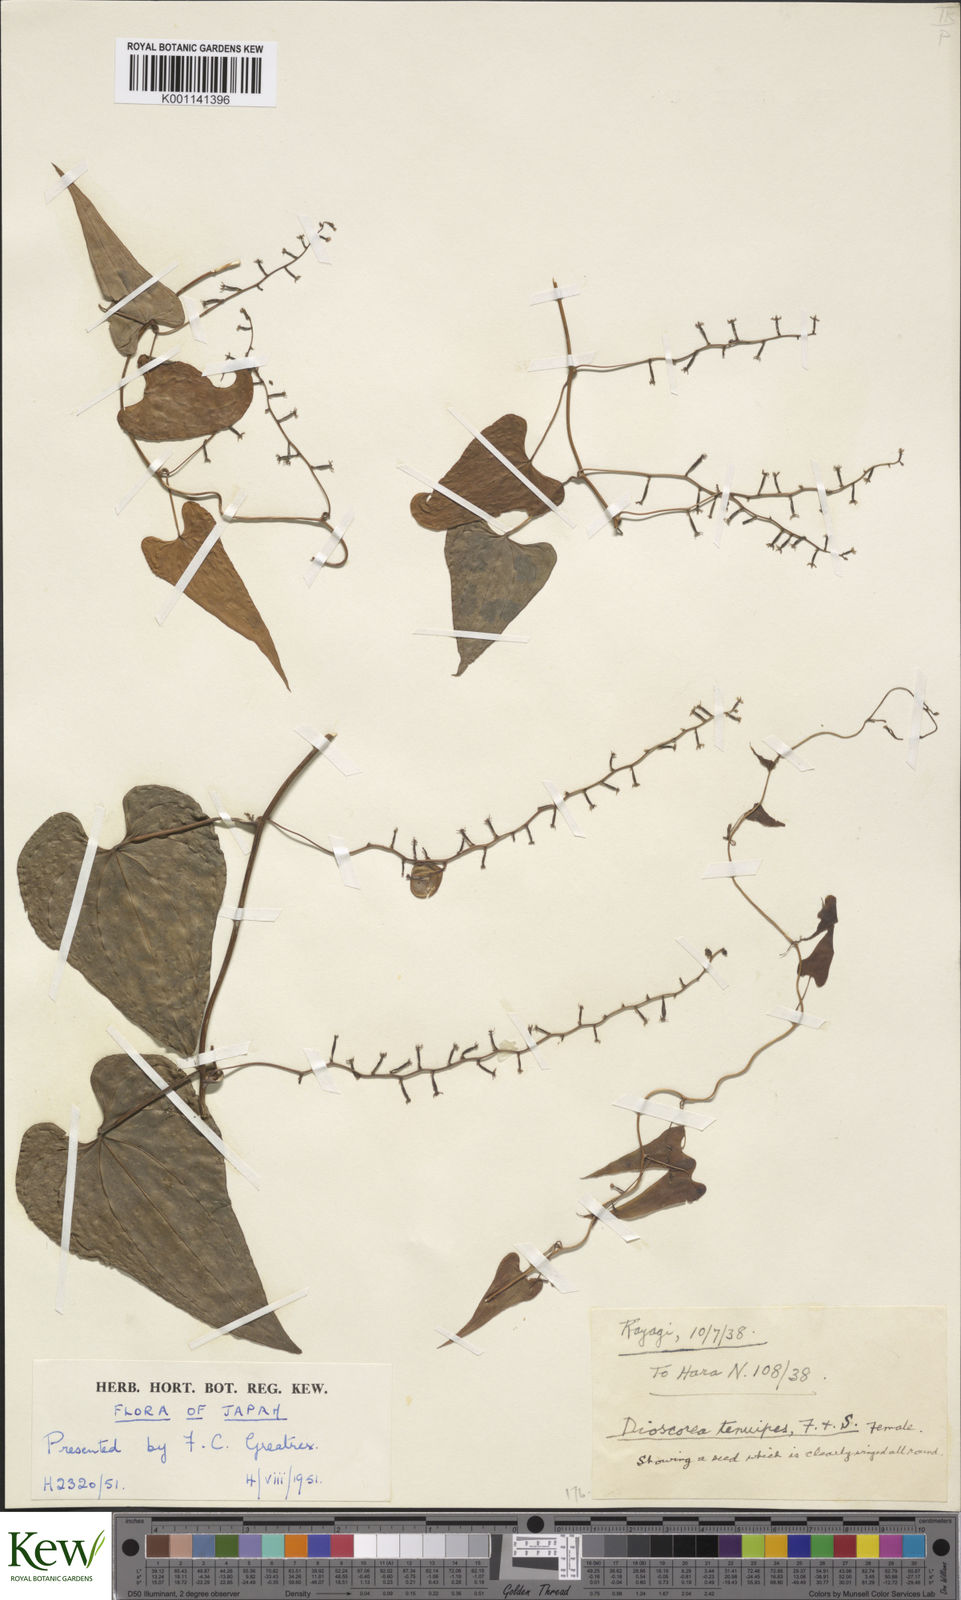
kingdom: Plantae
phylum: Tracheophyta
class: Liliopsida
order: Dioscoreales
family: Dioscoreaceae
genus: Dioscorea
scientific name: Dioscorea tenuipes
